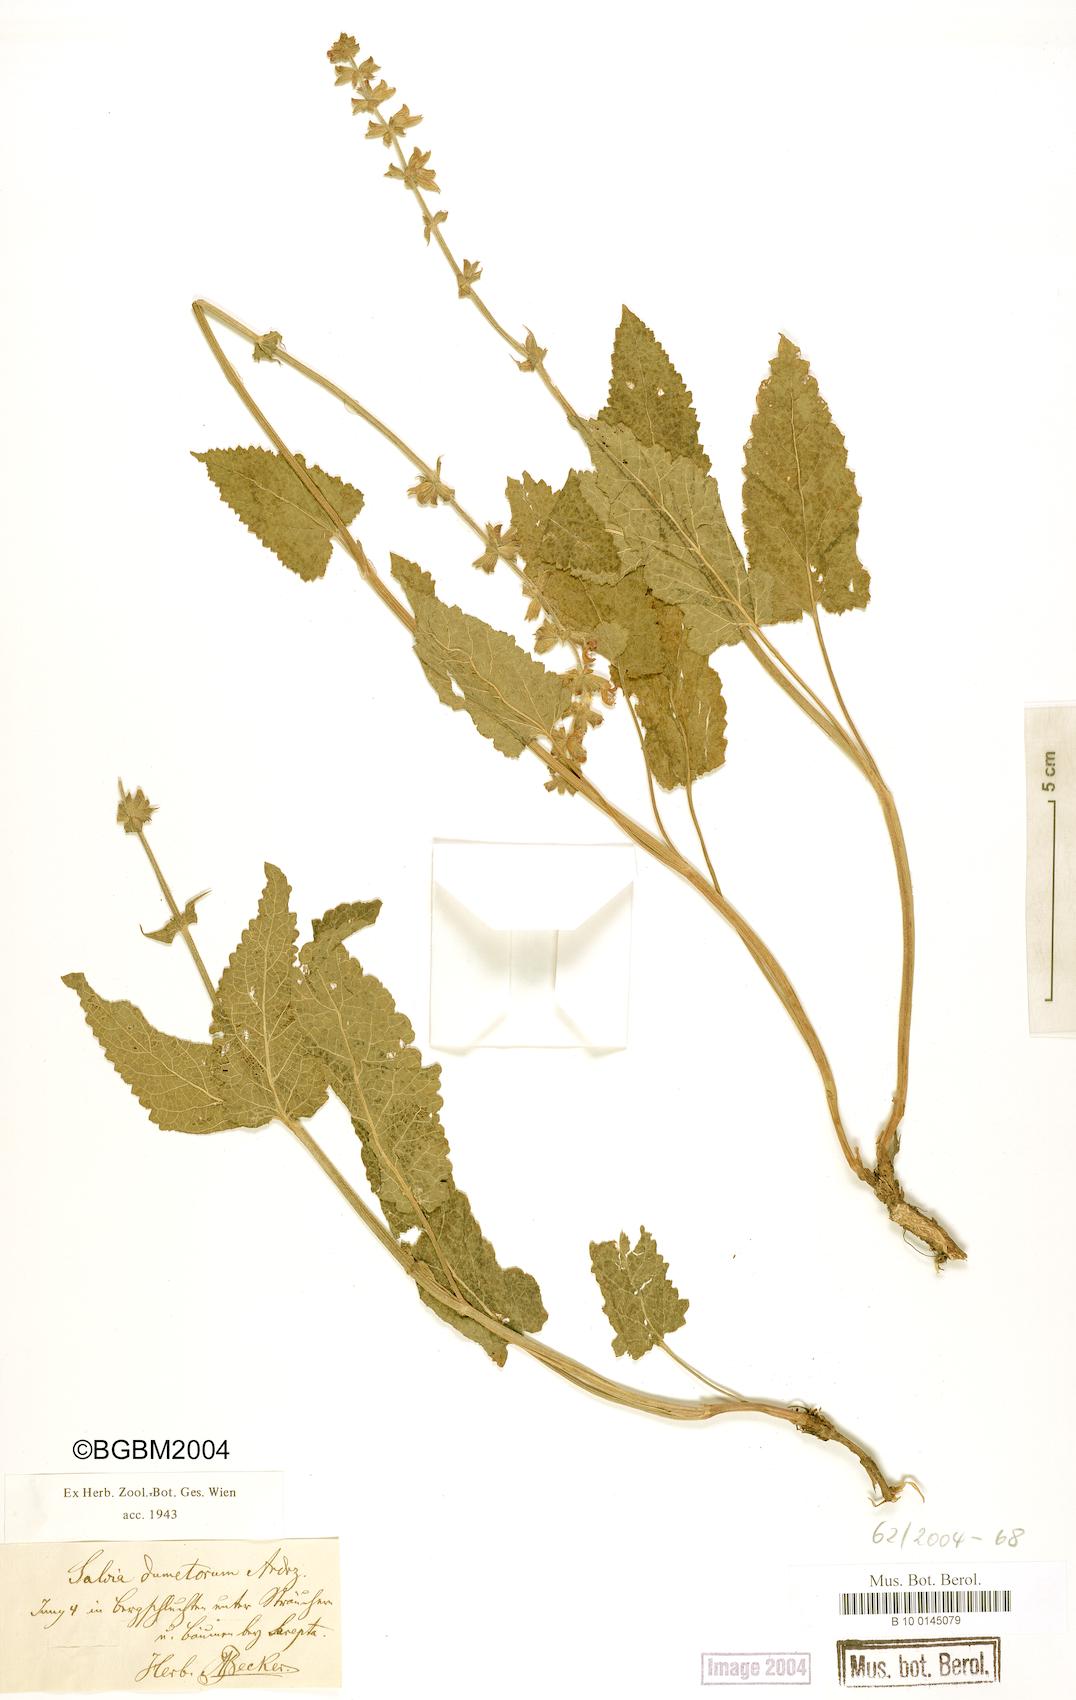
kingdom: Plantae
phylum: Tracheophyta
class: Magnoliopsida
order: Lamiales
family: Lamiaceae
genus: Salvia
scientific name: Salvia dumetorum
